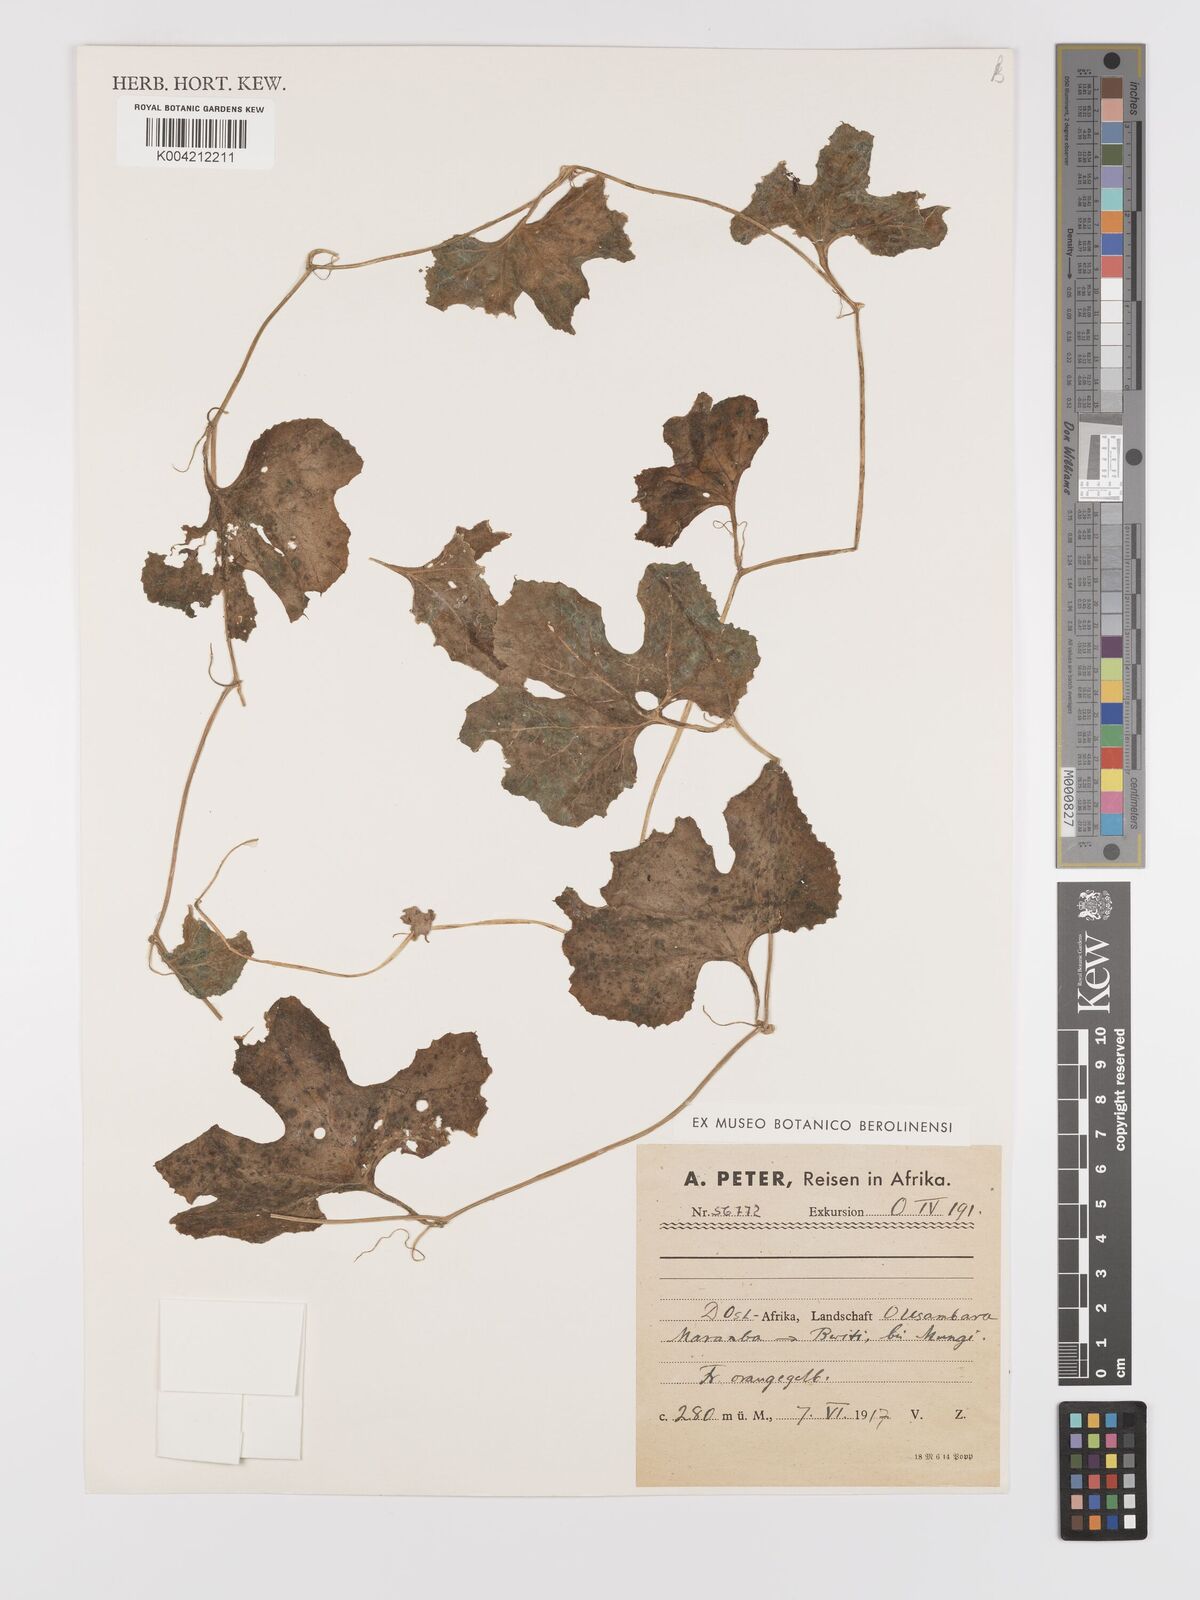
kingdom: Plantae
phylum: Tracheophyta
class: Magnoliopsida
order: Cucurbitales
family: Cucurbitaceae
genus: Kedrostis
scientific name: Kedrostis abdallae
